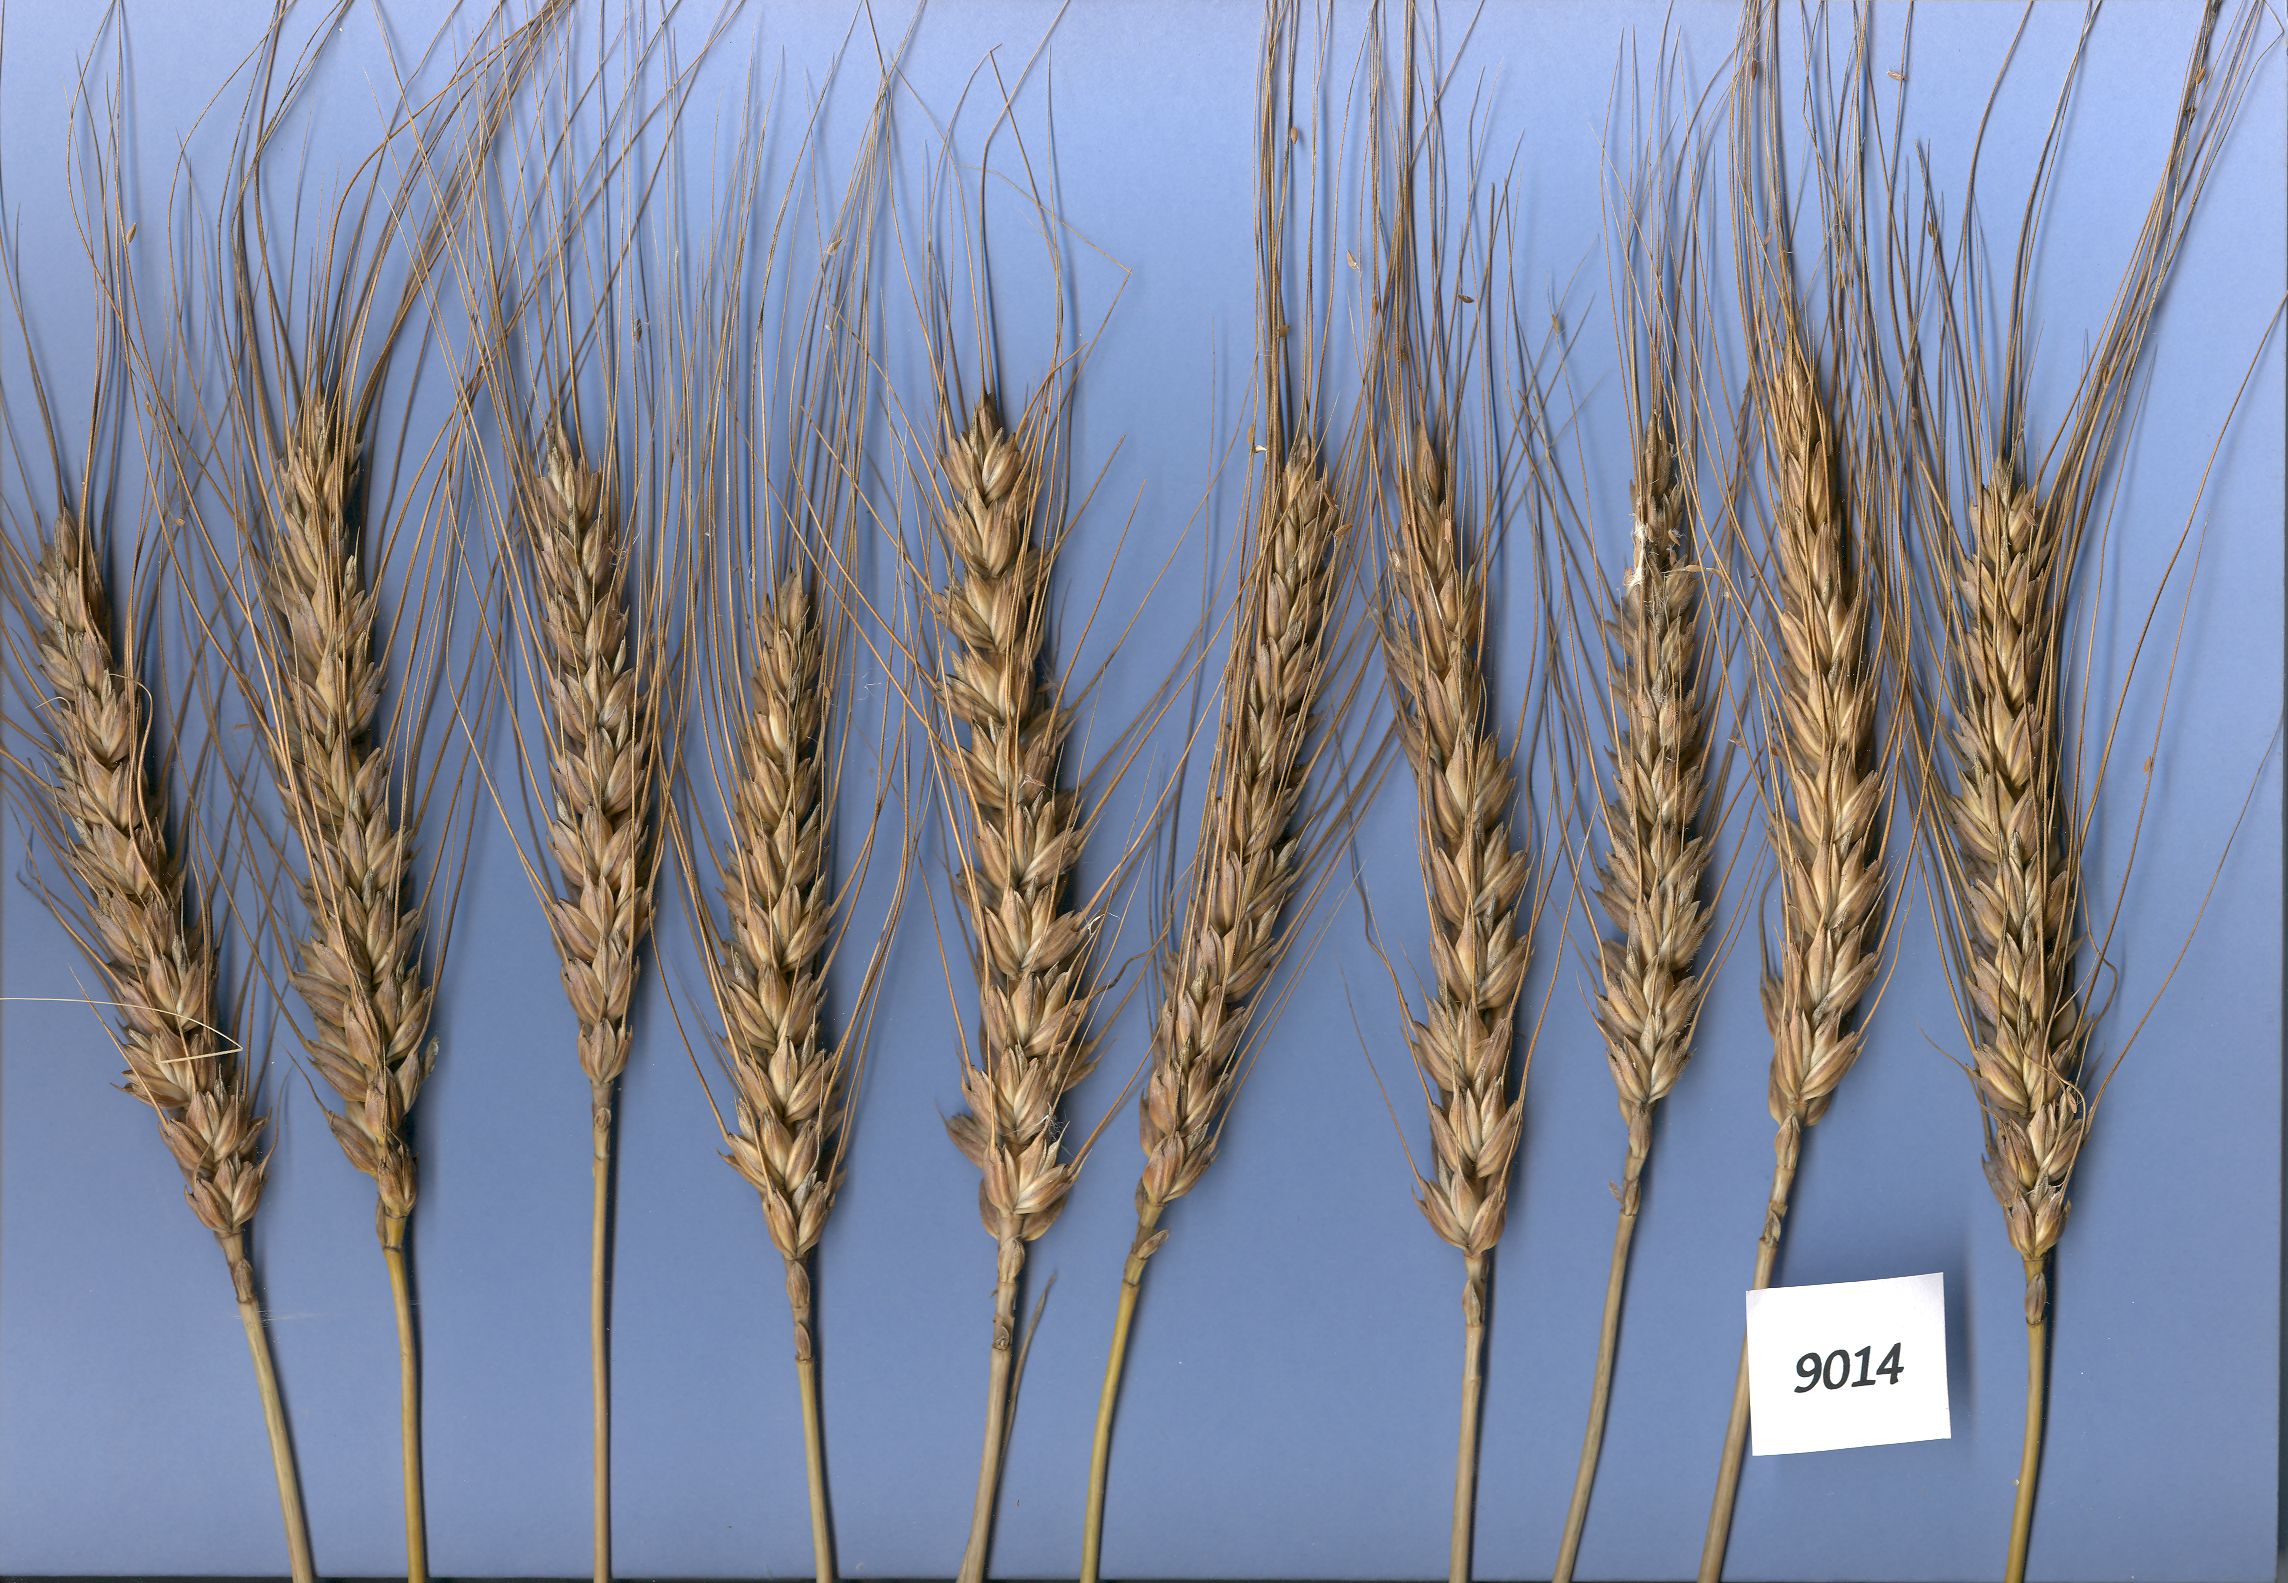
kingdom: Plantae
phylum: Tracheophyta
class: Liliopsida
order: Poales
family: Poaceae
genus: Triticum
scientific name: Triticum aestivum
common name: Common wheat
